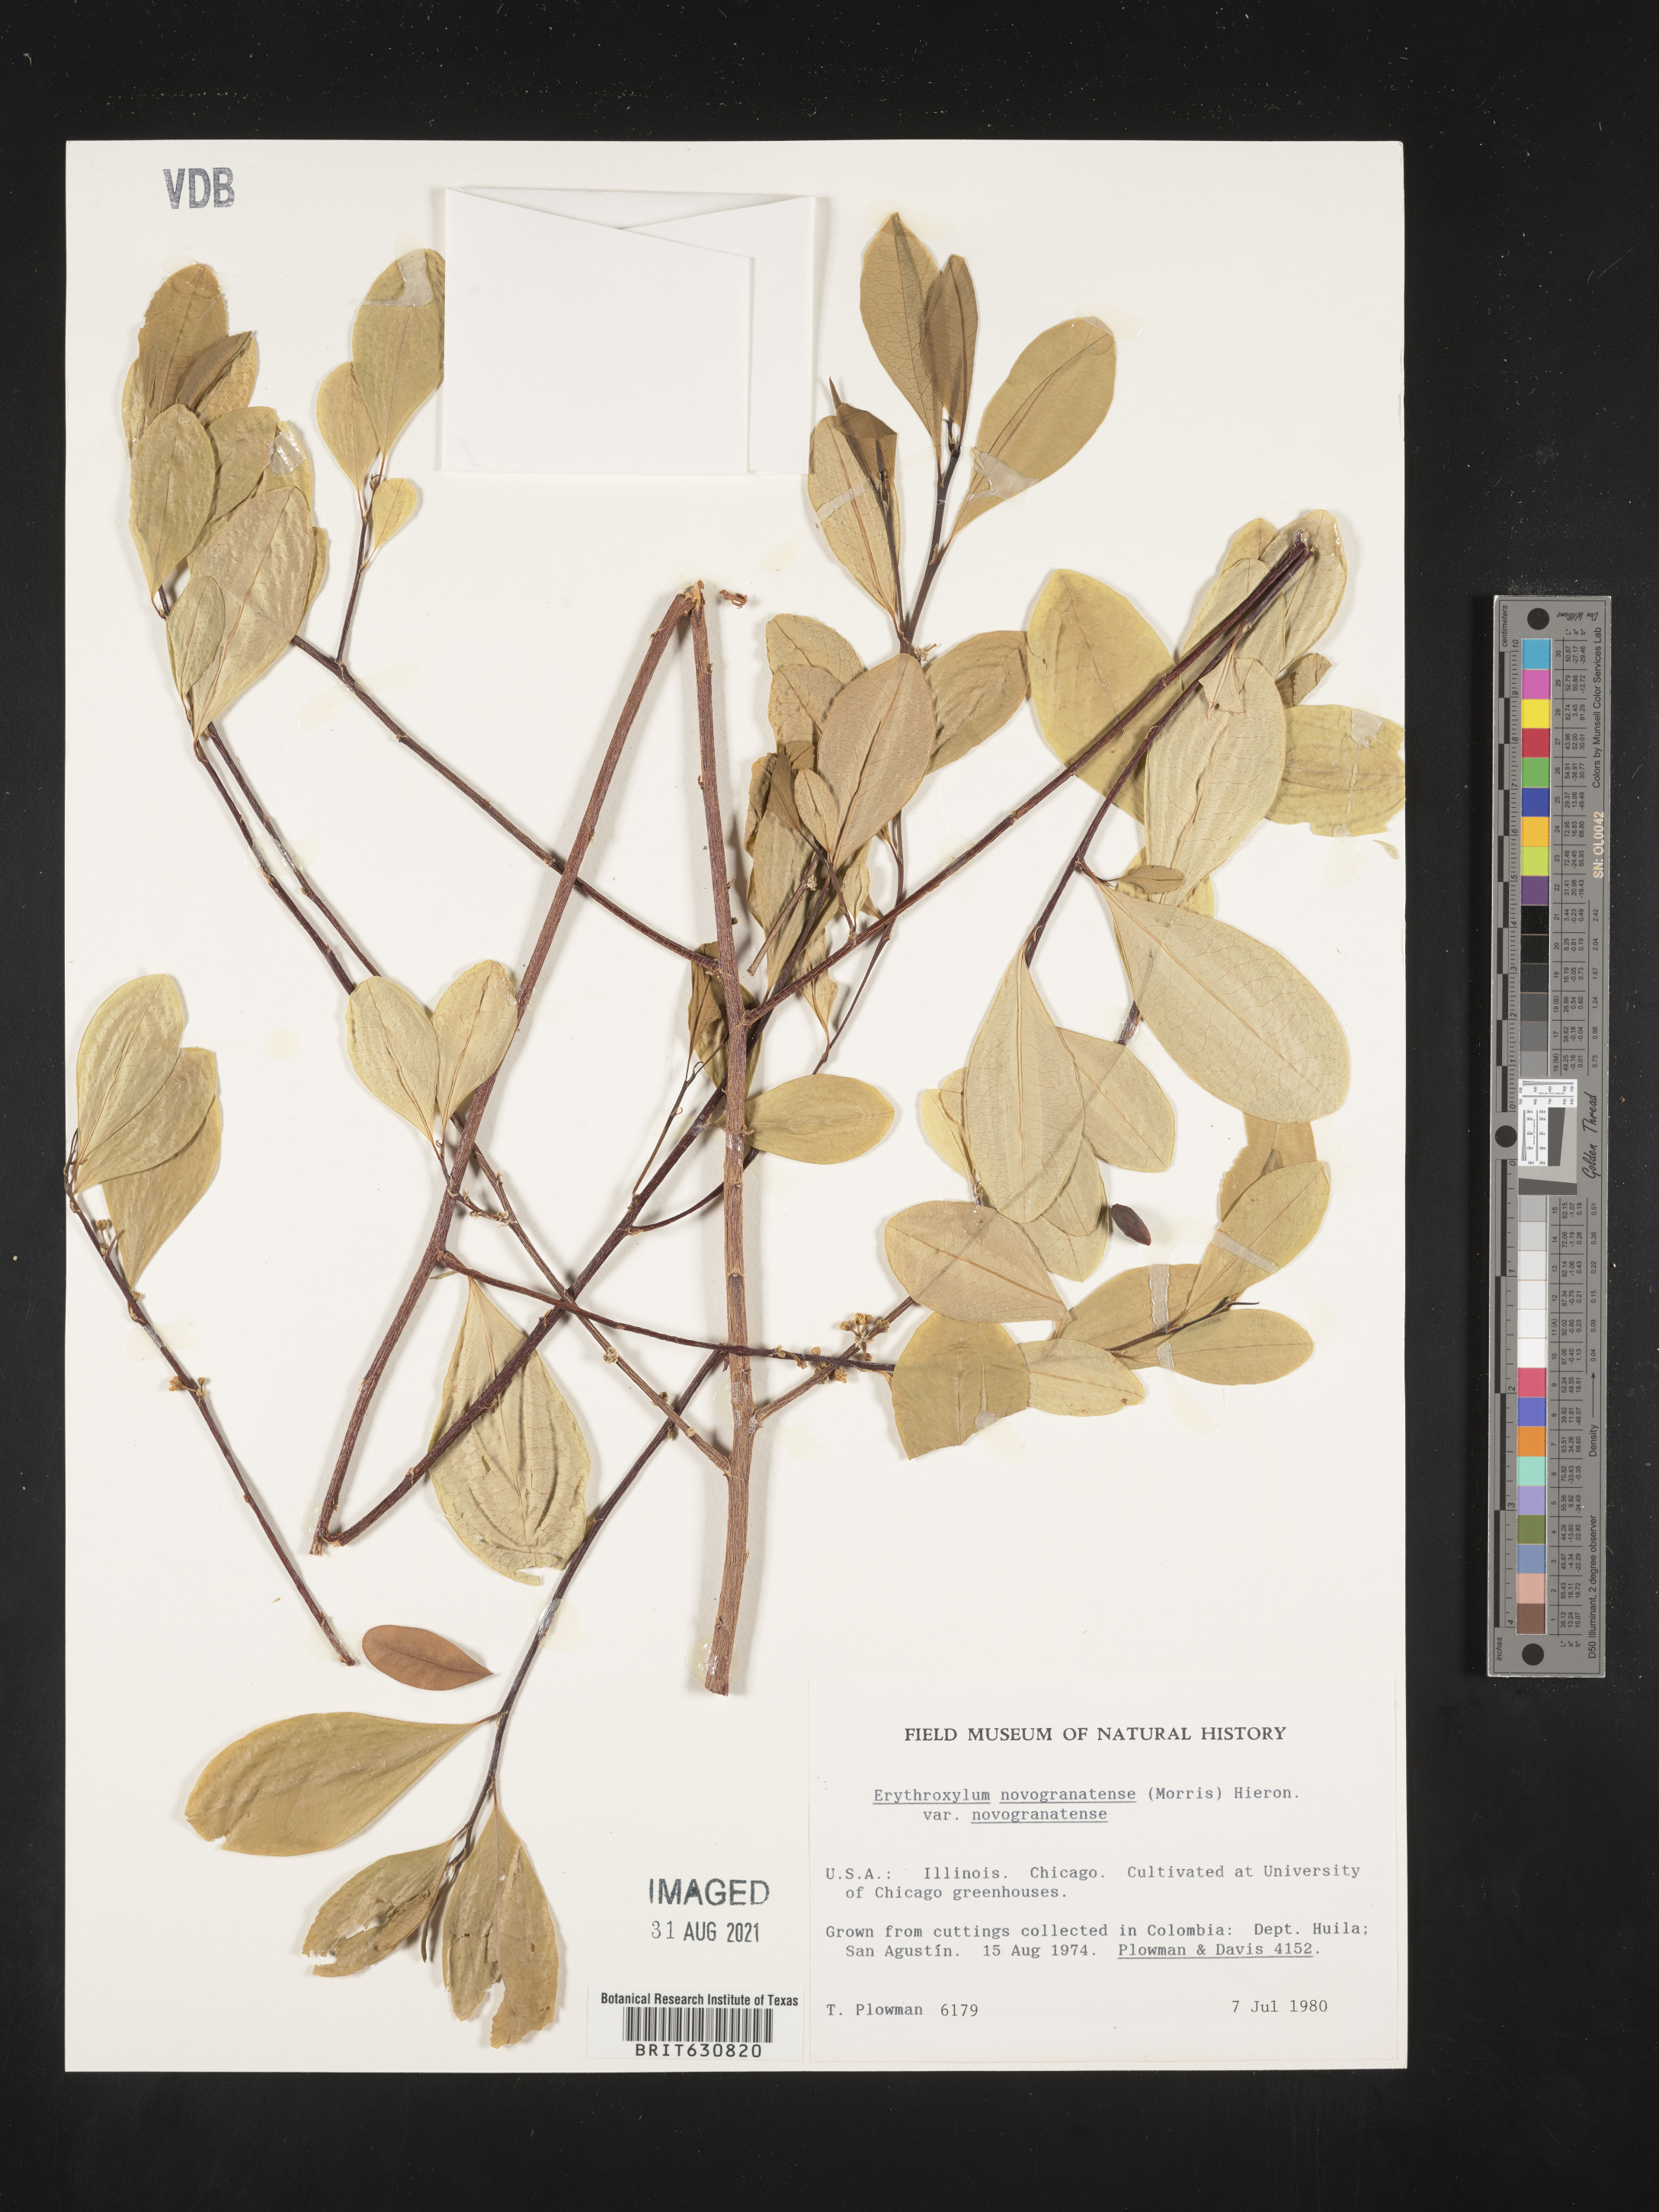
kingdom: Plantae
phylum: Tracheophyta
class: Magnoliopsida
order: Malpighiales
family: Erythroxylaceae
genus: Erythroxylum
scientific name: Erythroxylum
